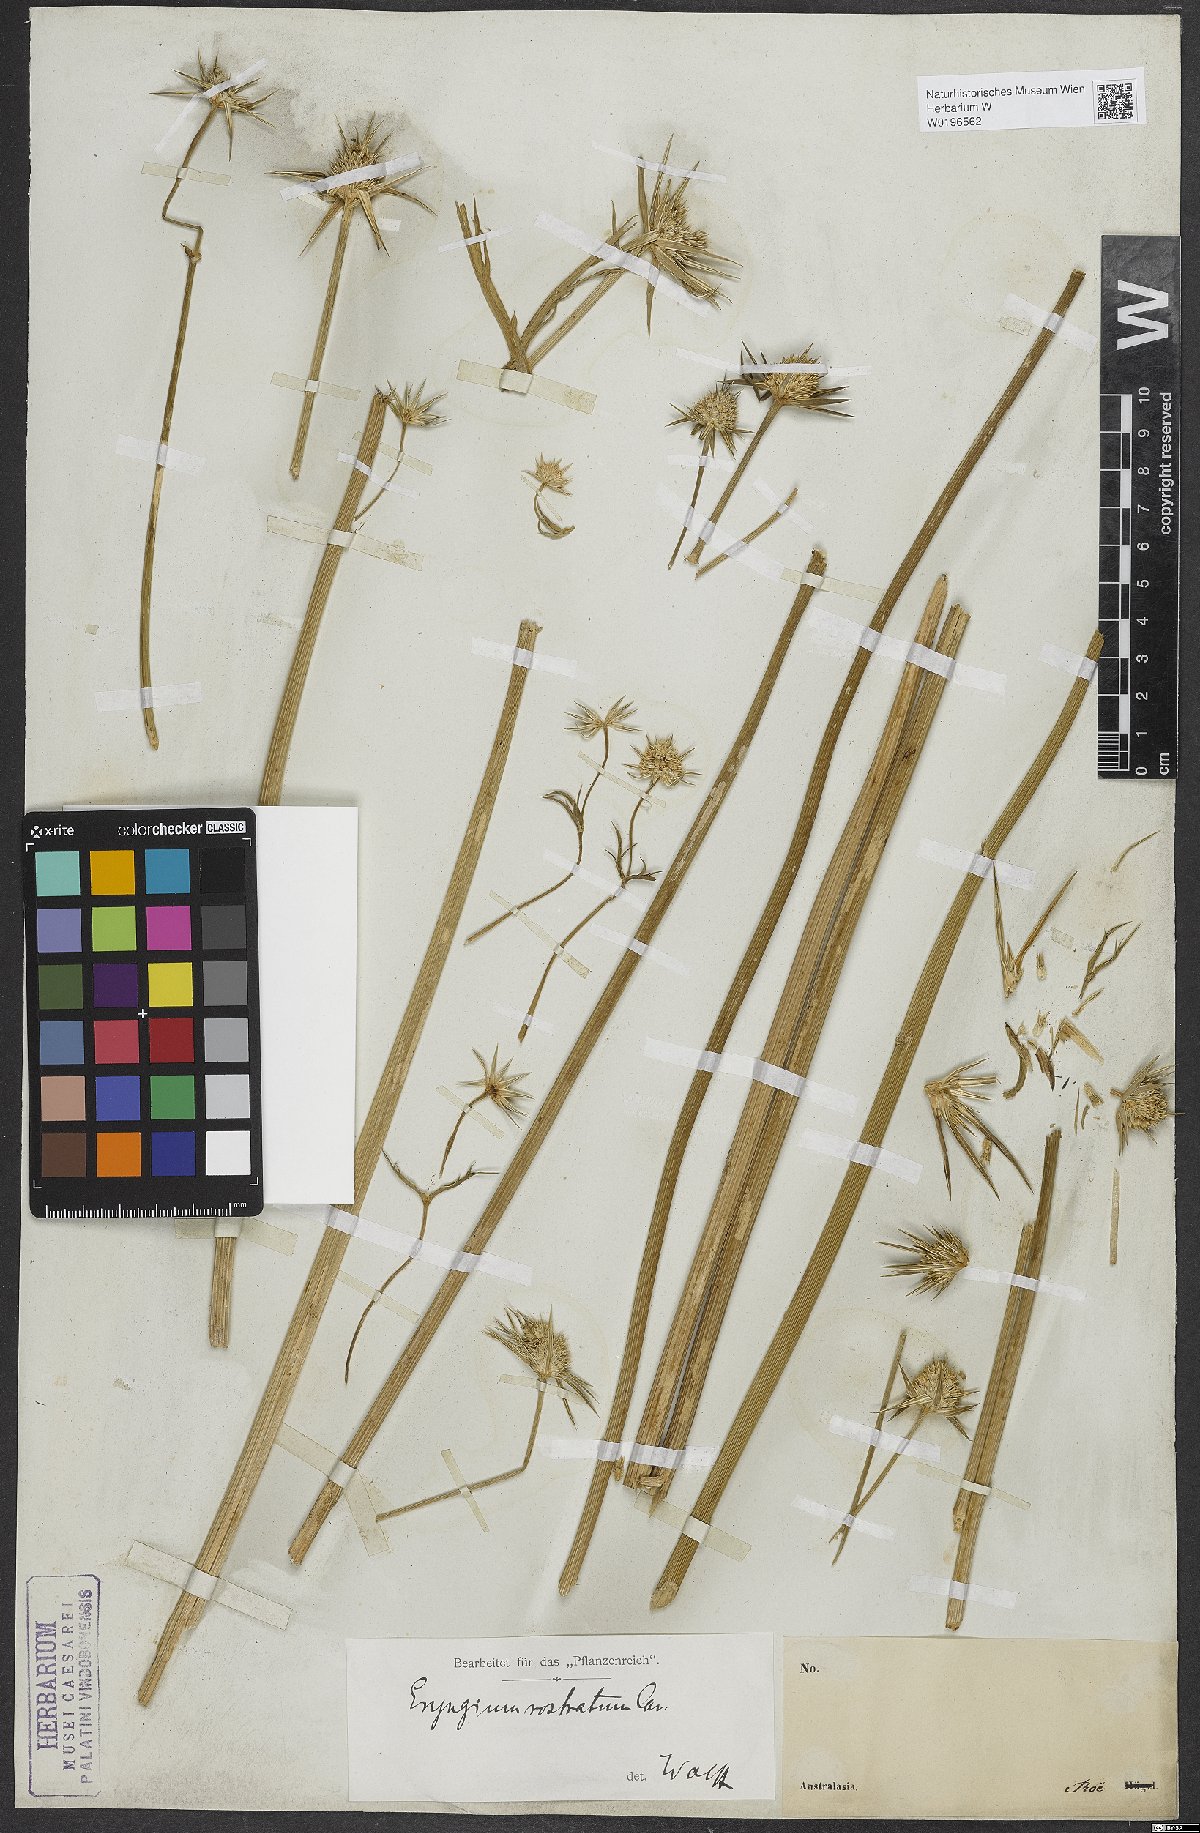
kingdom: Plantae
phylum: Tracheophyta
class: Magnoliopsida
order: Apiales
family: Apiaceae
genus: Eryngium
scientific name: Eryngium rostratum
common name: Blue eryngo
